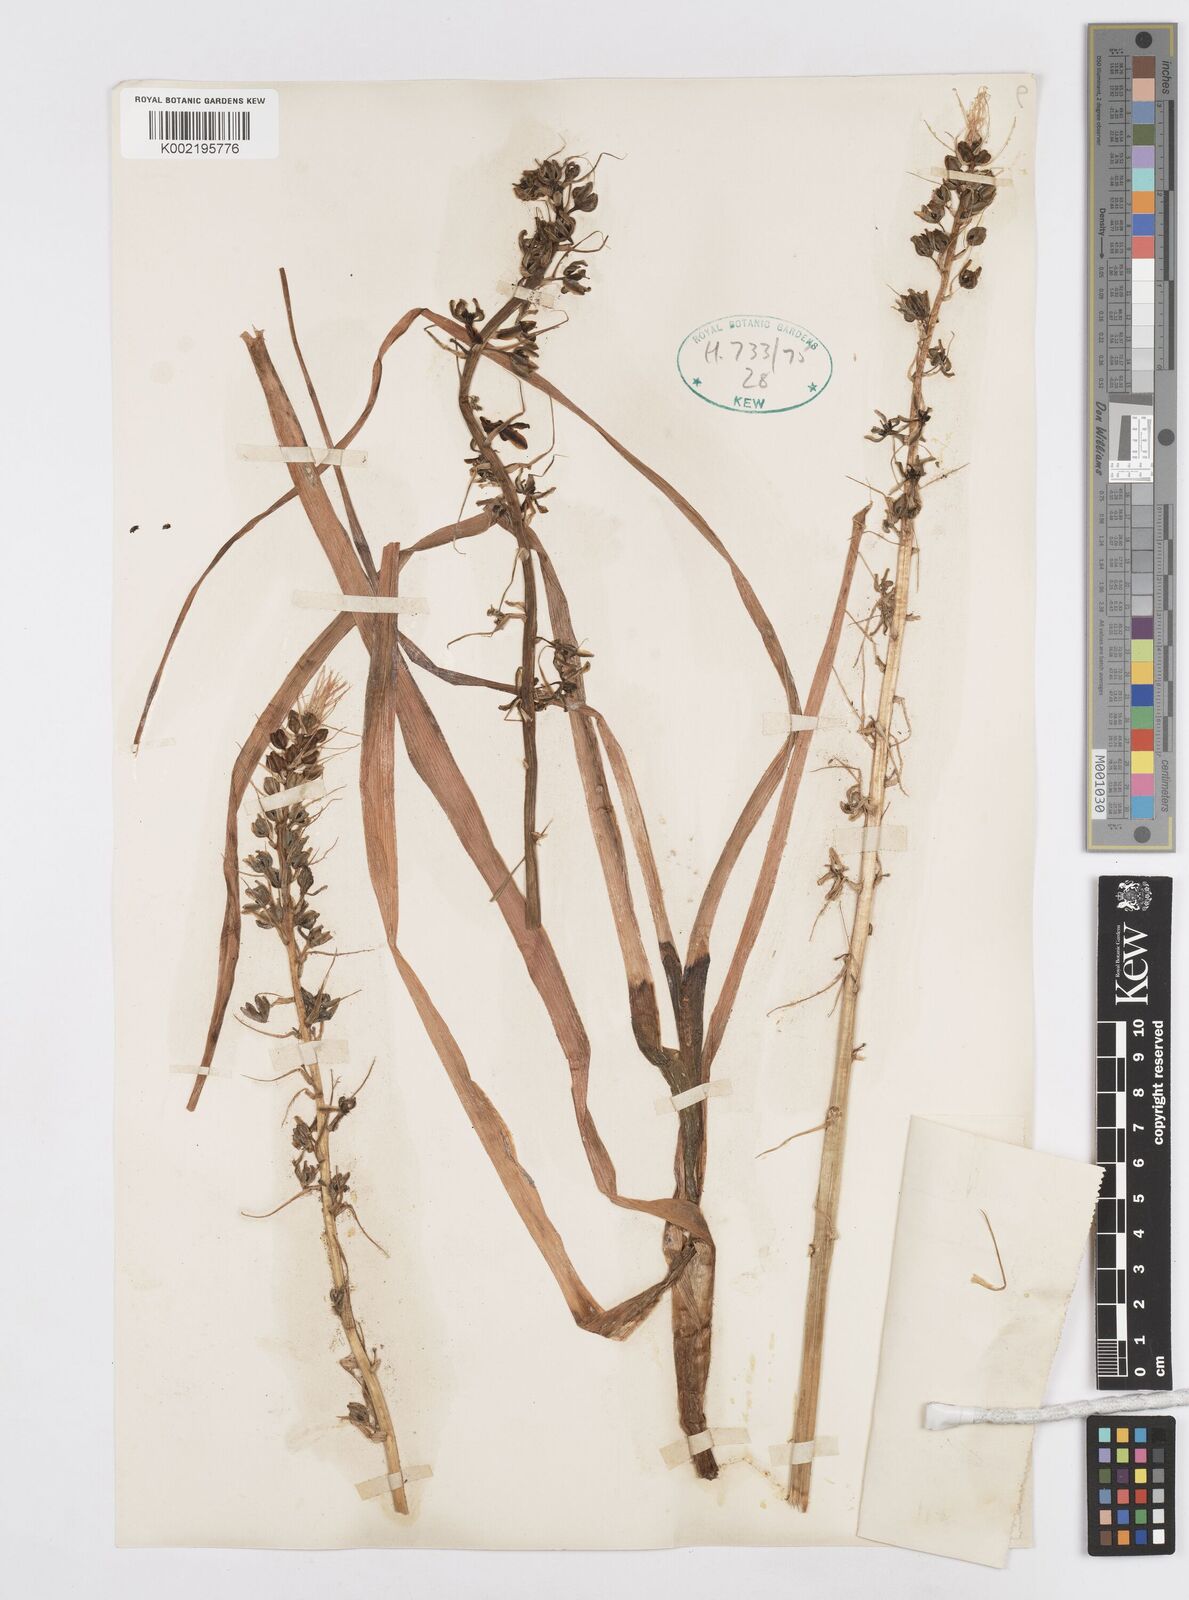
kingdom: Plantae
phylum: Tracheophyta
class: Liliopsida
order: Asparagales
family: Asparagaceae
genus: Ornithogalum
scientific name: Ornithogalum
